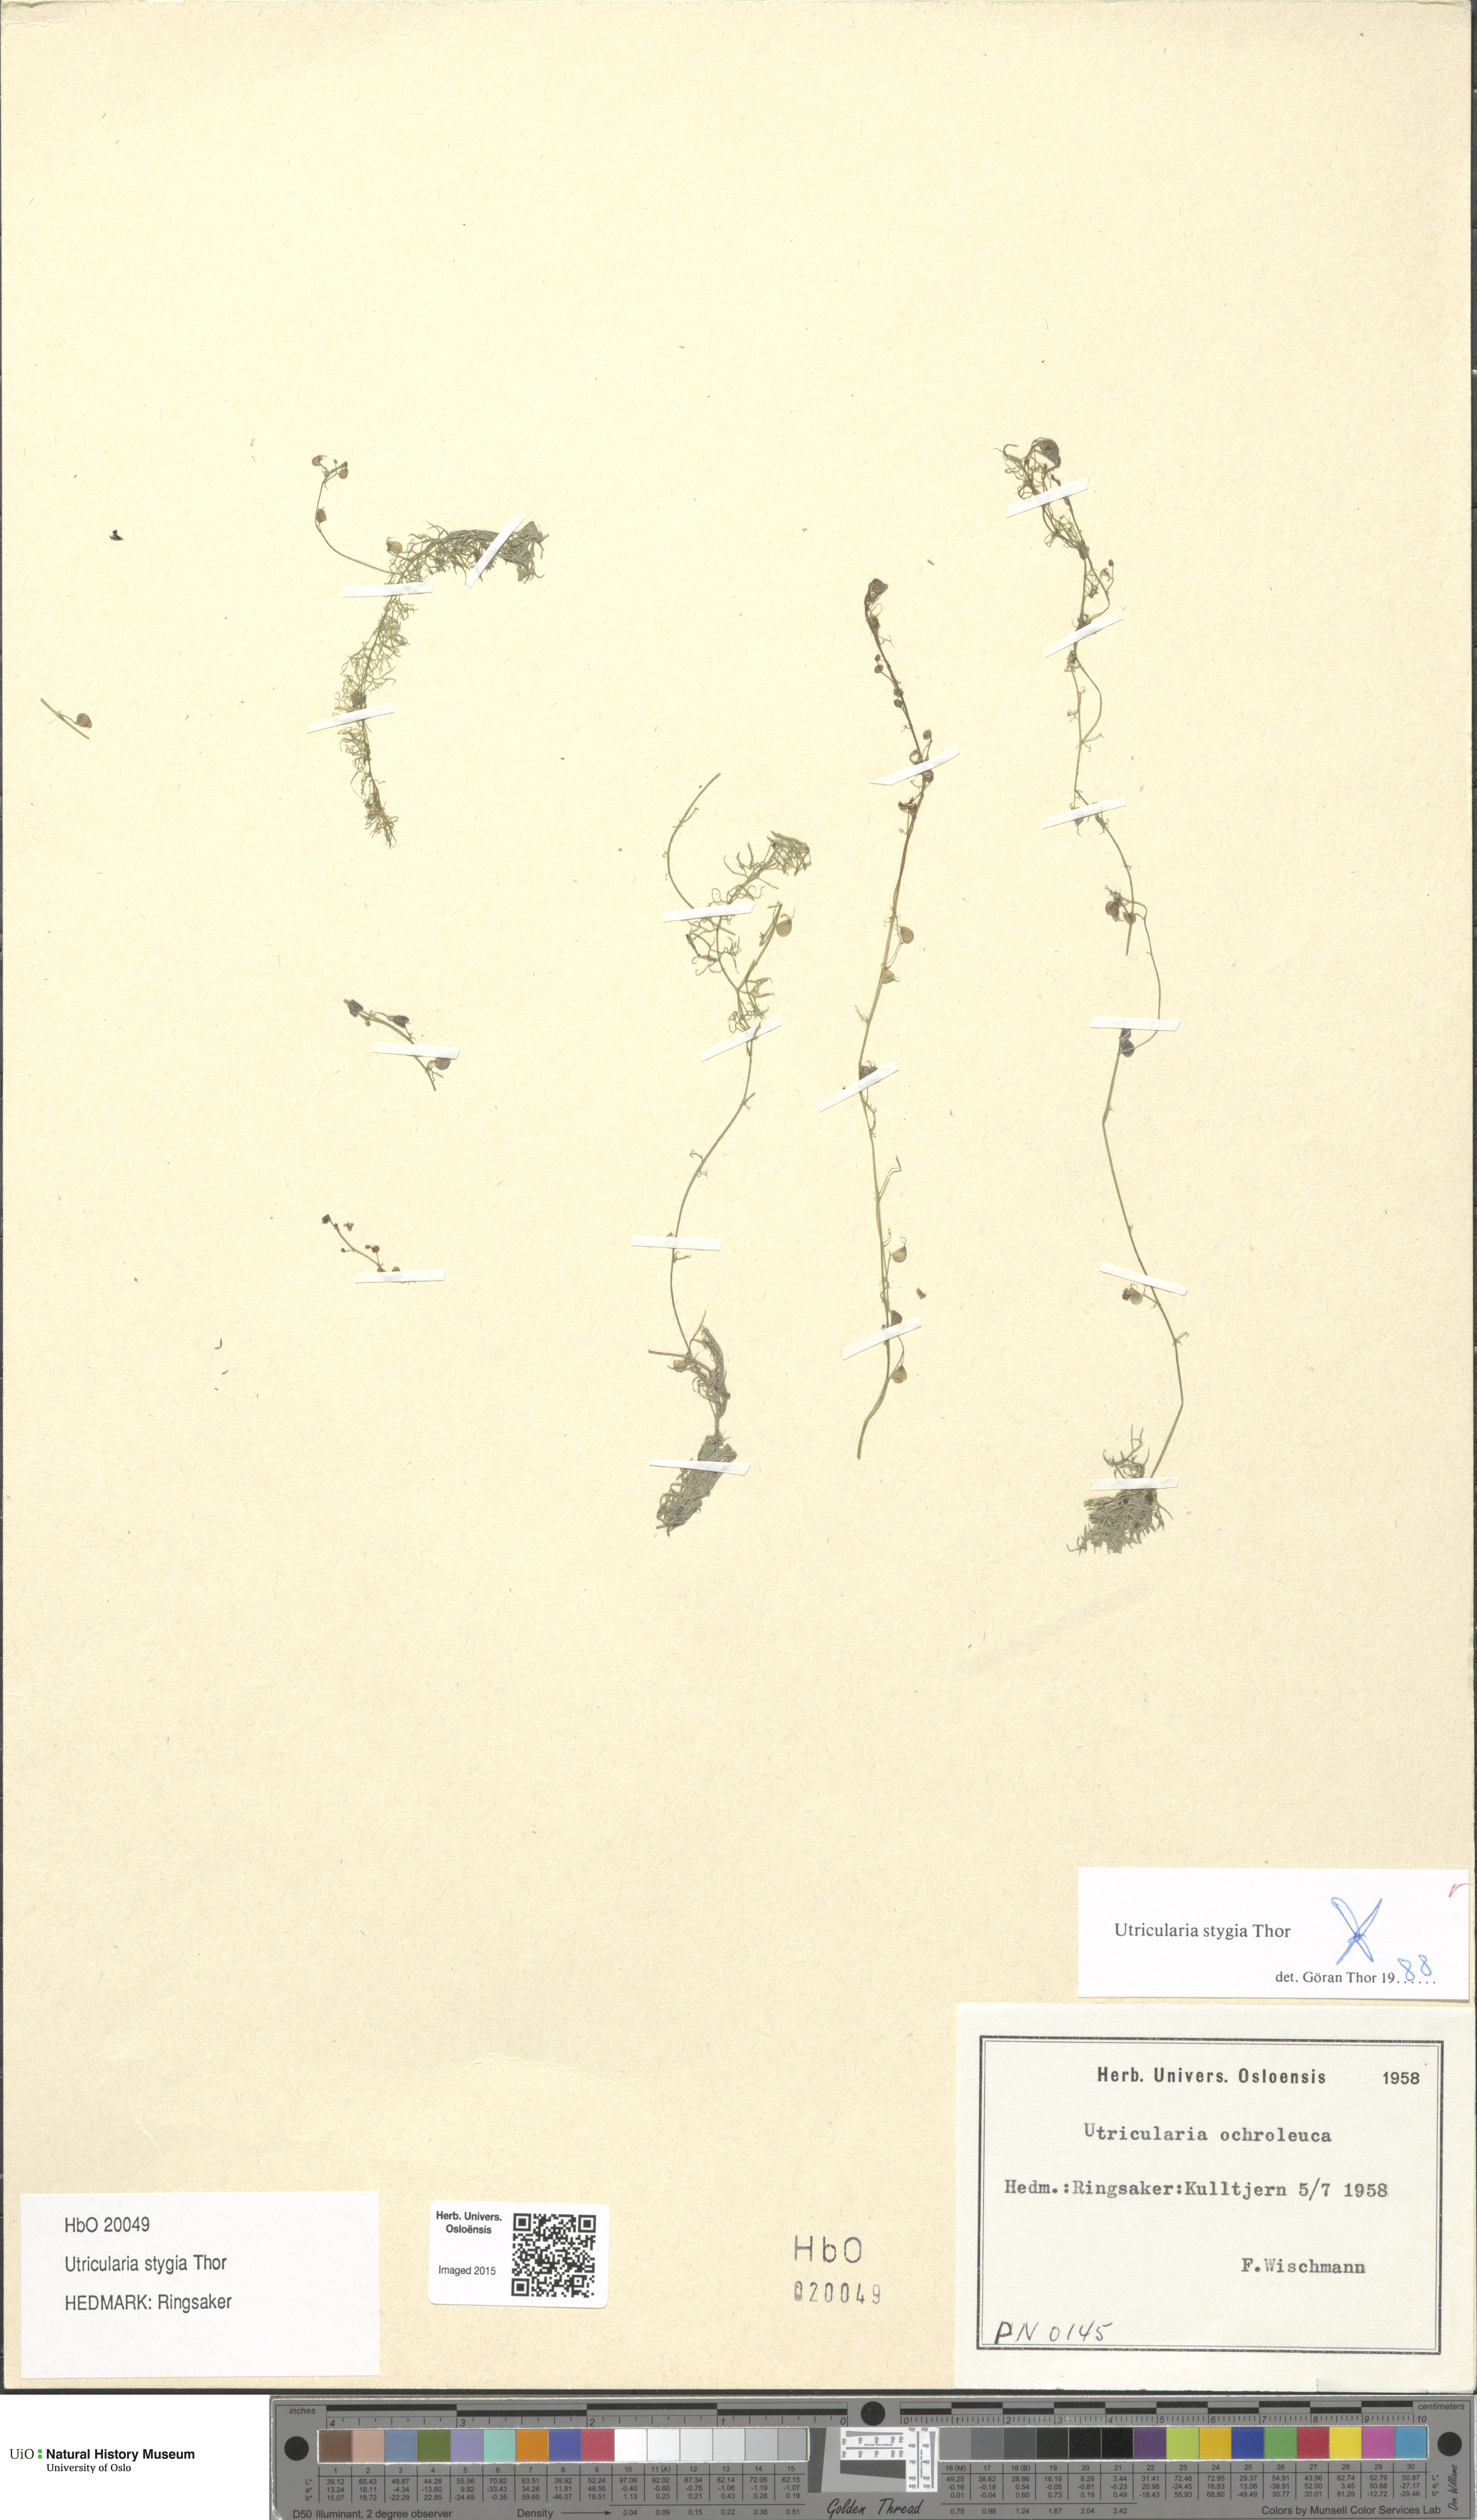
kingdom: Plantae
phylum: Tracheophyta
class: Magnoliopsida
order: Lamiales
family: Lentibulariaceae
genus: Utricularia
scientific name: Utricularia ochroleuca
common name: Pale bladderwort
